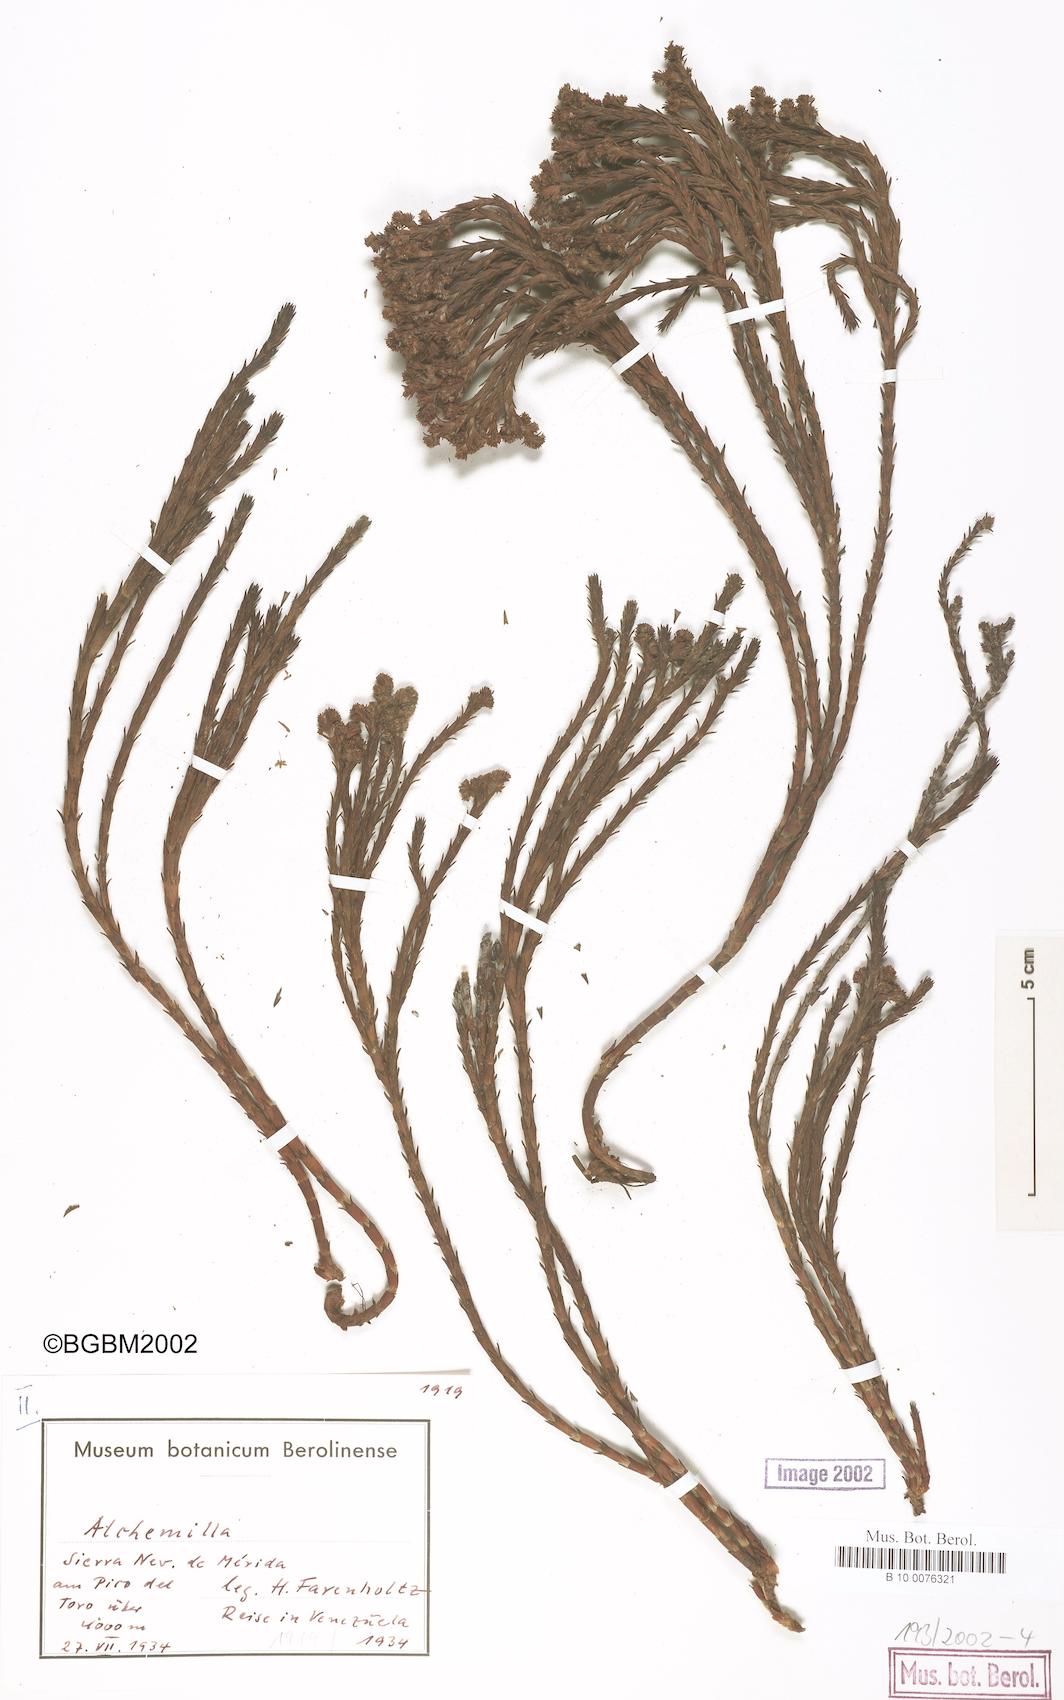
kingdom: Plantae
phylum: Tracheophyta
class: Magnoliopsida
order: Rosales
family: Rosaceae
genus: Lachemilla
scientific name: Lachemilla equisetiformis
